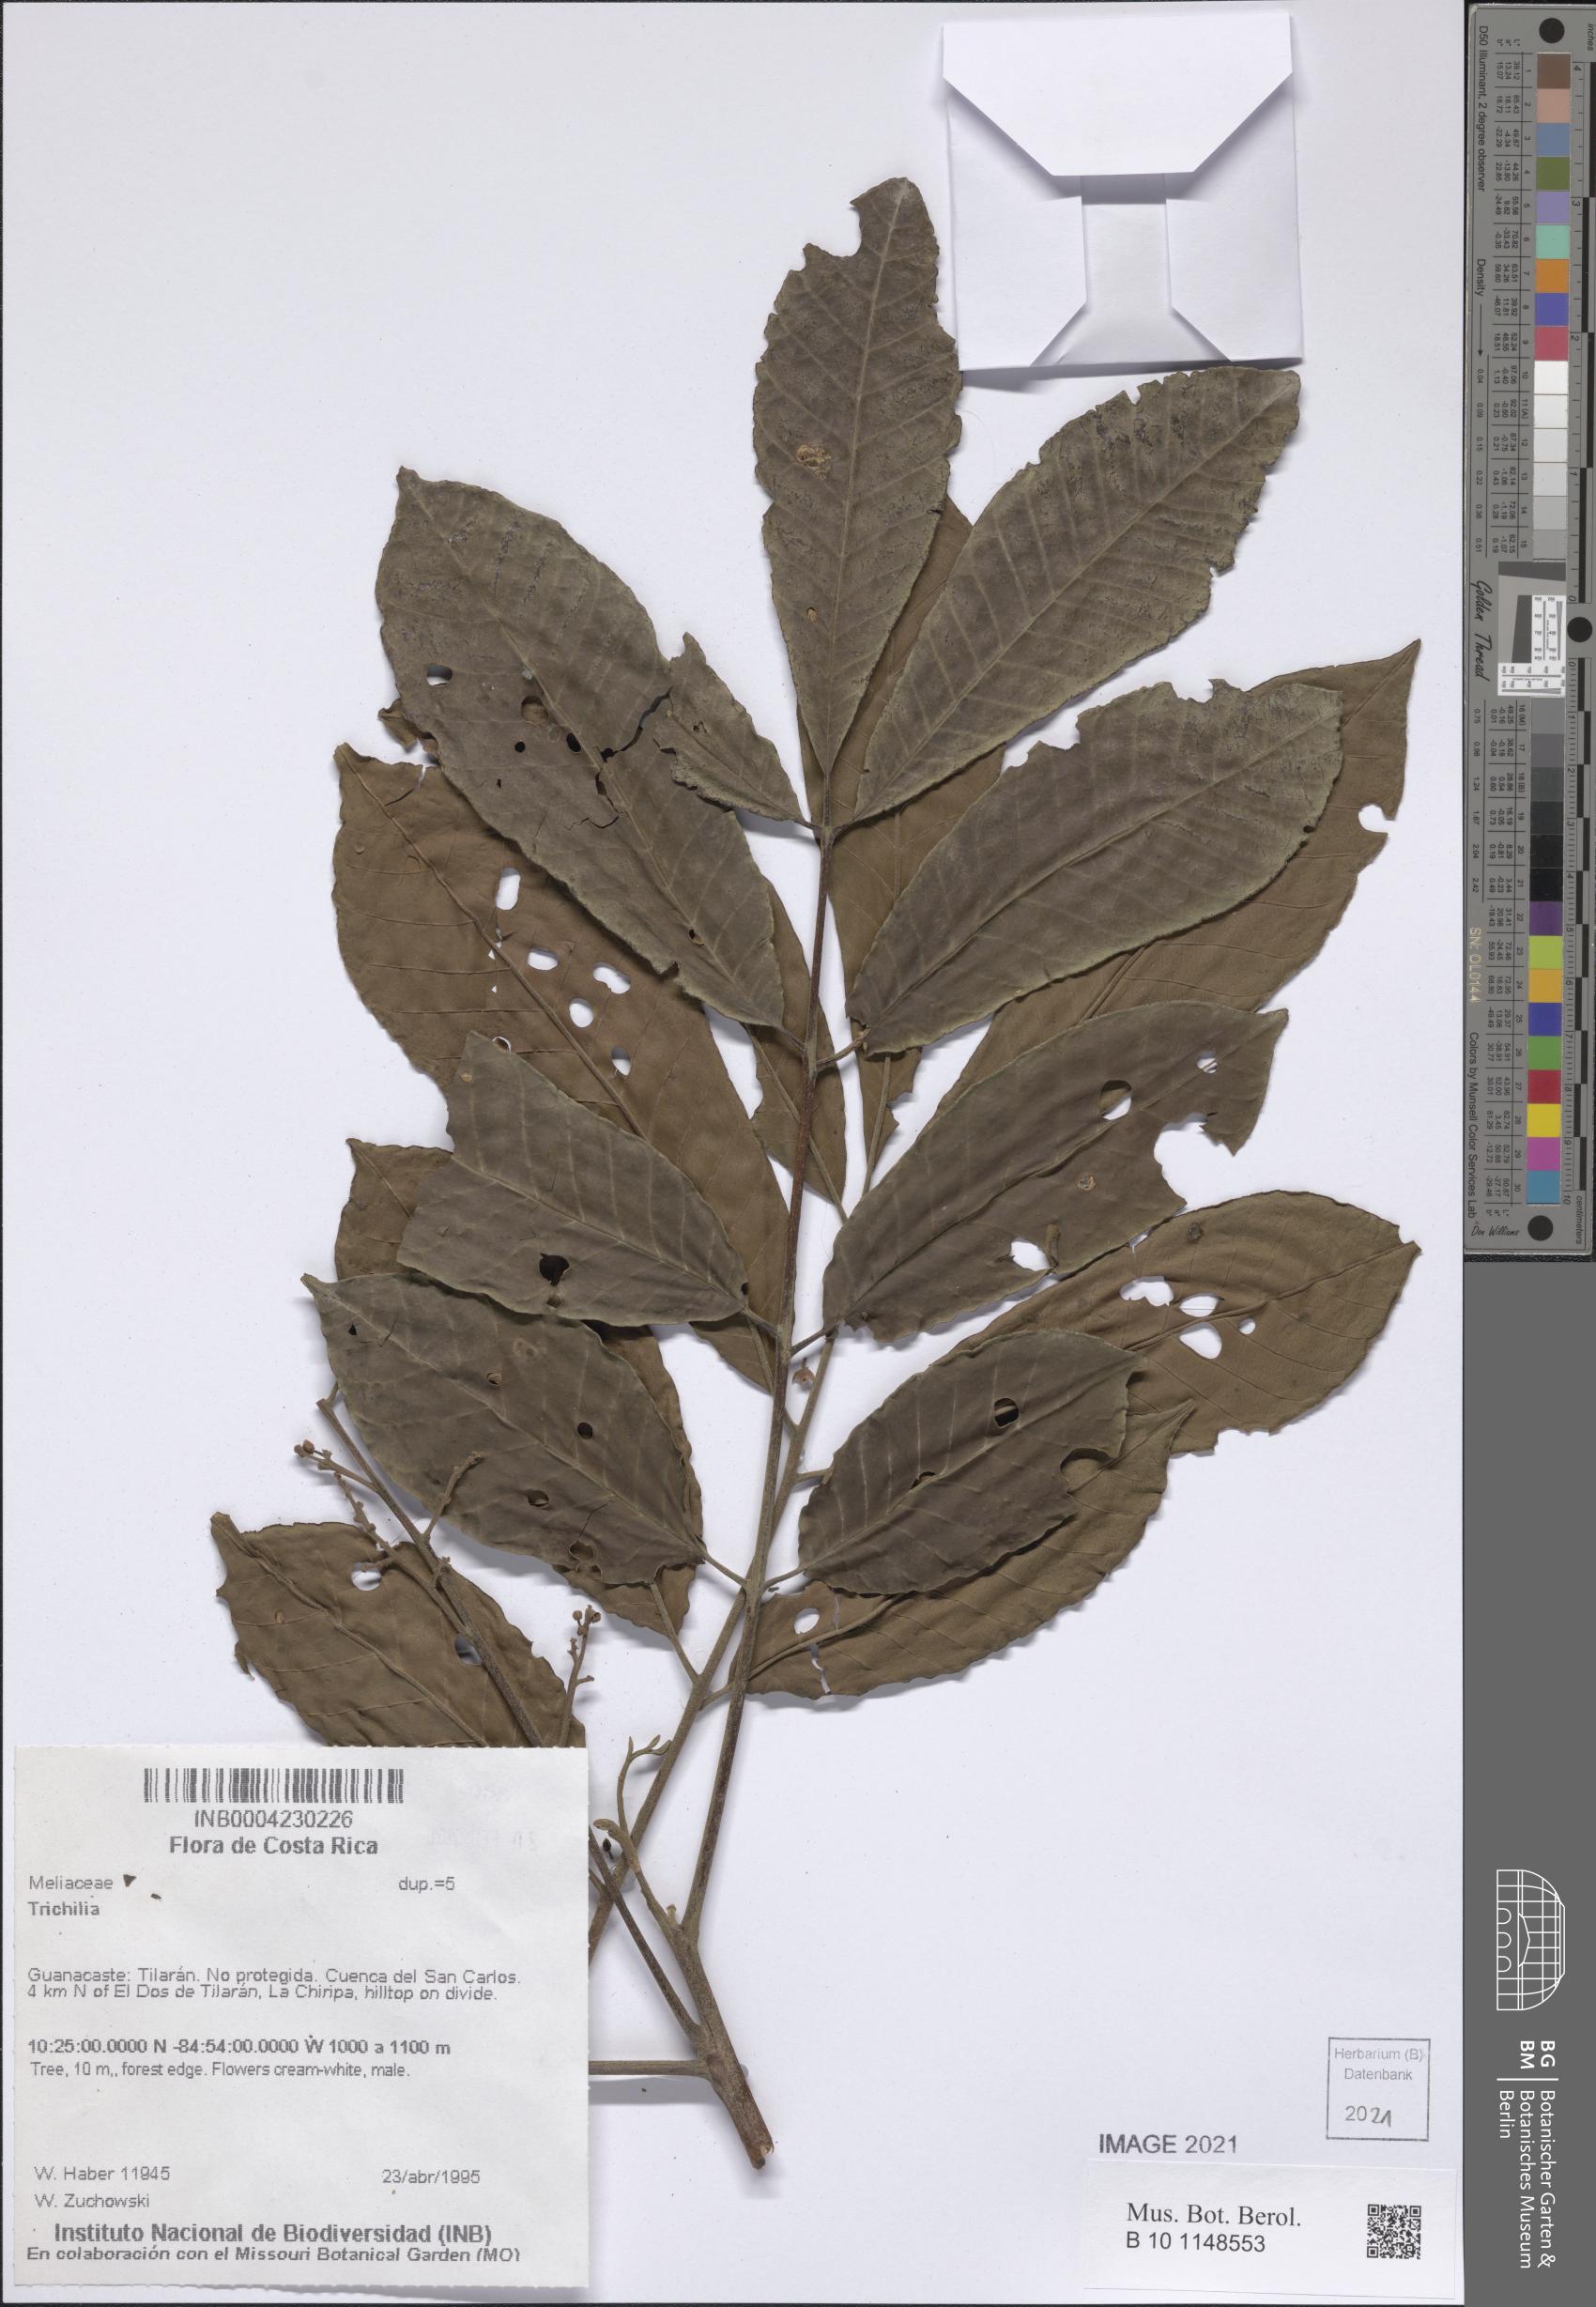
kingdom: Plantae
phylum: Tracheophyta
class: Magnoliopsida
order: Sapindales
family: Meliaceae
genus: Trichilia
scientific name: Trichilia
